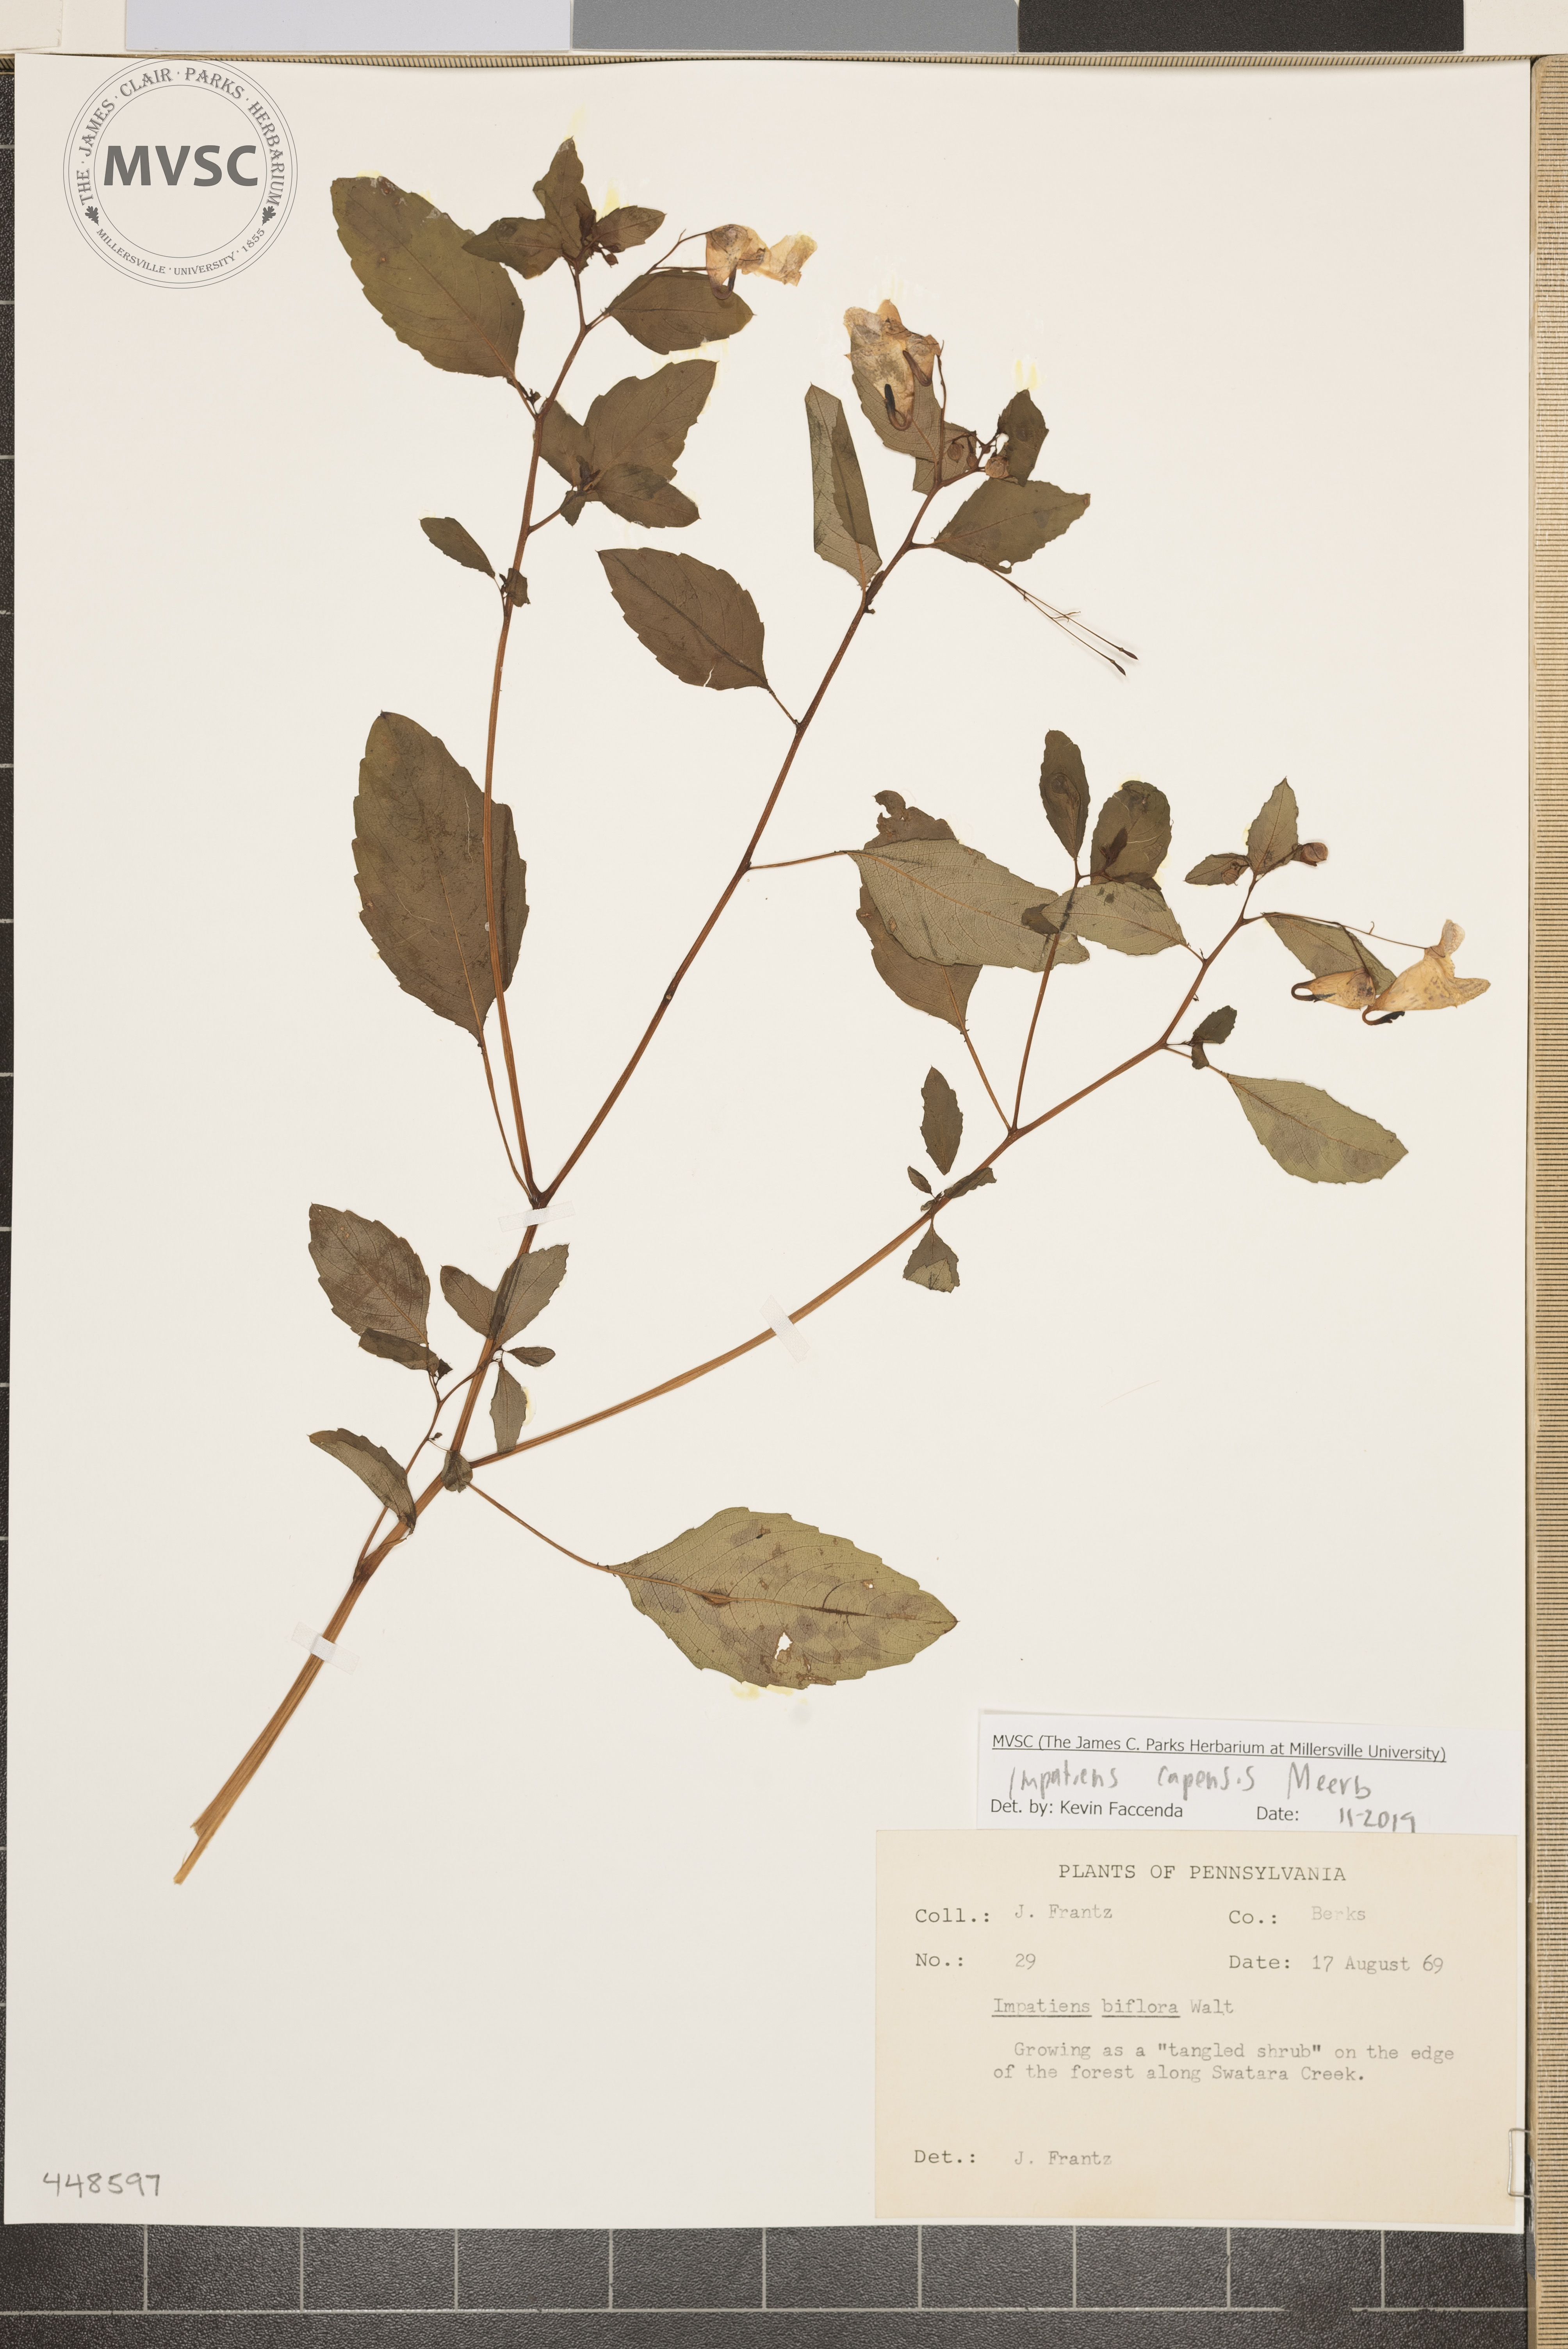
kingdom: Plantae
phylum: Tracheophyta
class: Magnoliopsida
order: Ericales
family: Balsaminaceae
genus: Impatiens
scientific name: Impatiens capensis
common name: Orange balsam
